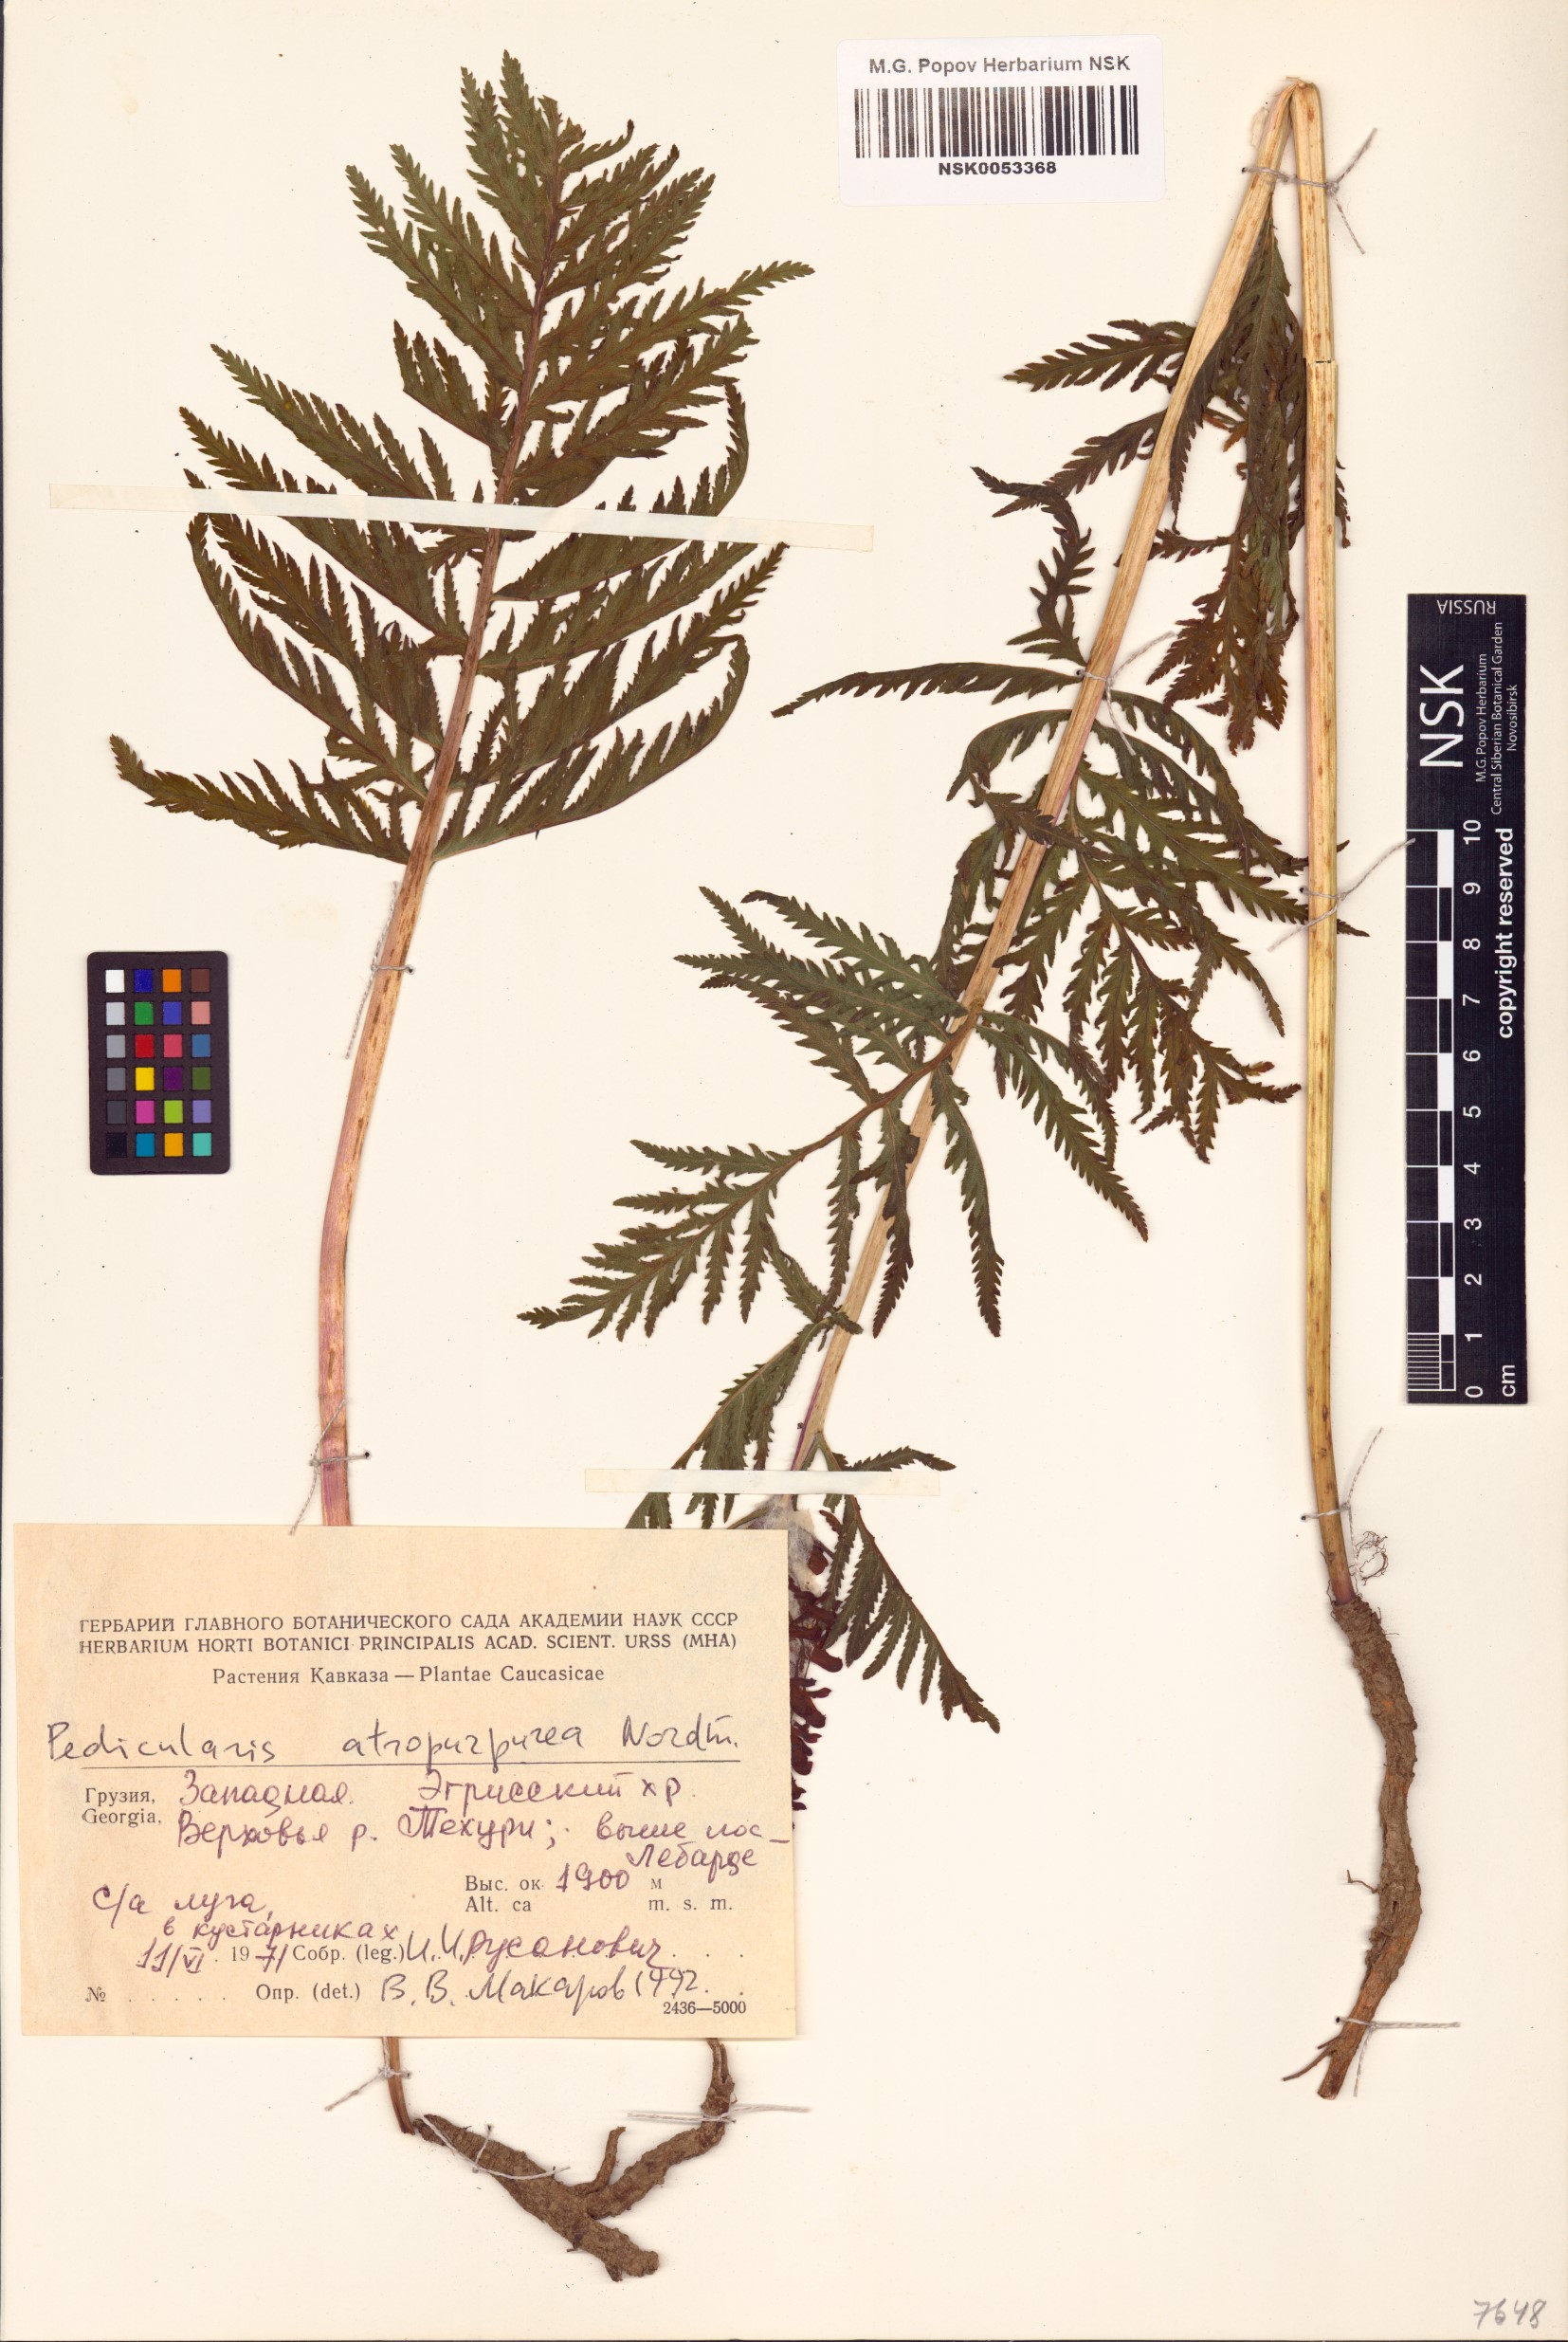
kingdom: Plantae
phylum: Tracheophyta
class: Magnoliopsida
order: Lamiales
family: Orobanchaceae
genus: Pedicularis
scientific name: Pedicularis atropurpurea
